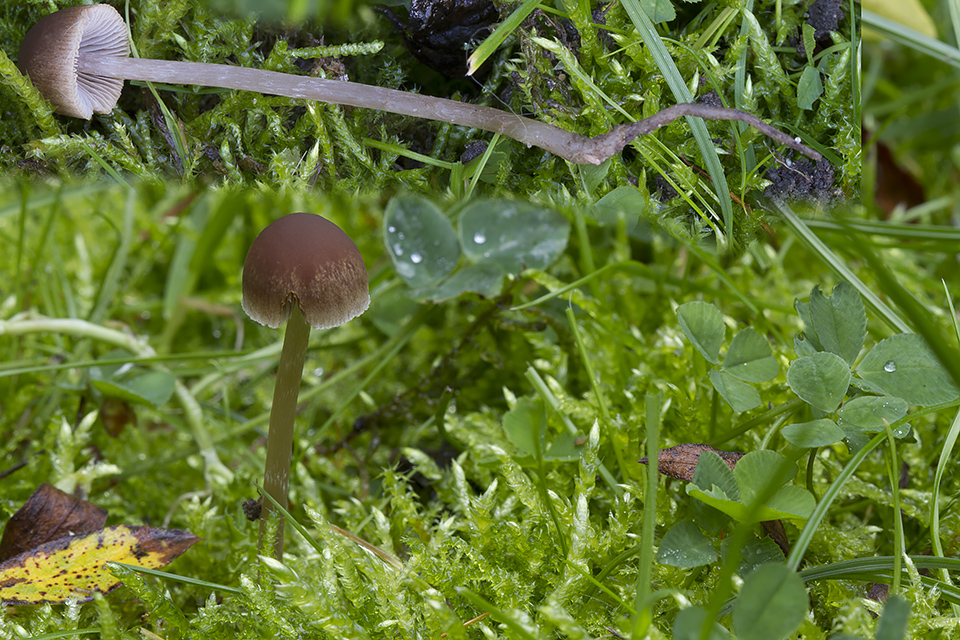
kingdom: Fungi
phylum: Basidiomycota
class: Agaricomycetes
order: Agaricales
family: Psathyrellaceae
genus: Psathyrella
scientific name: Psathyrella microrhiza
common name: rod-mørkhat
